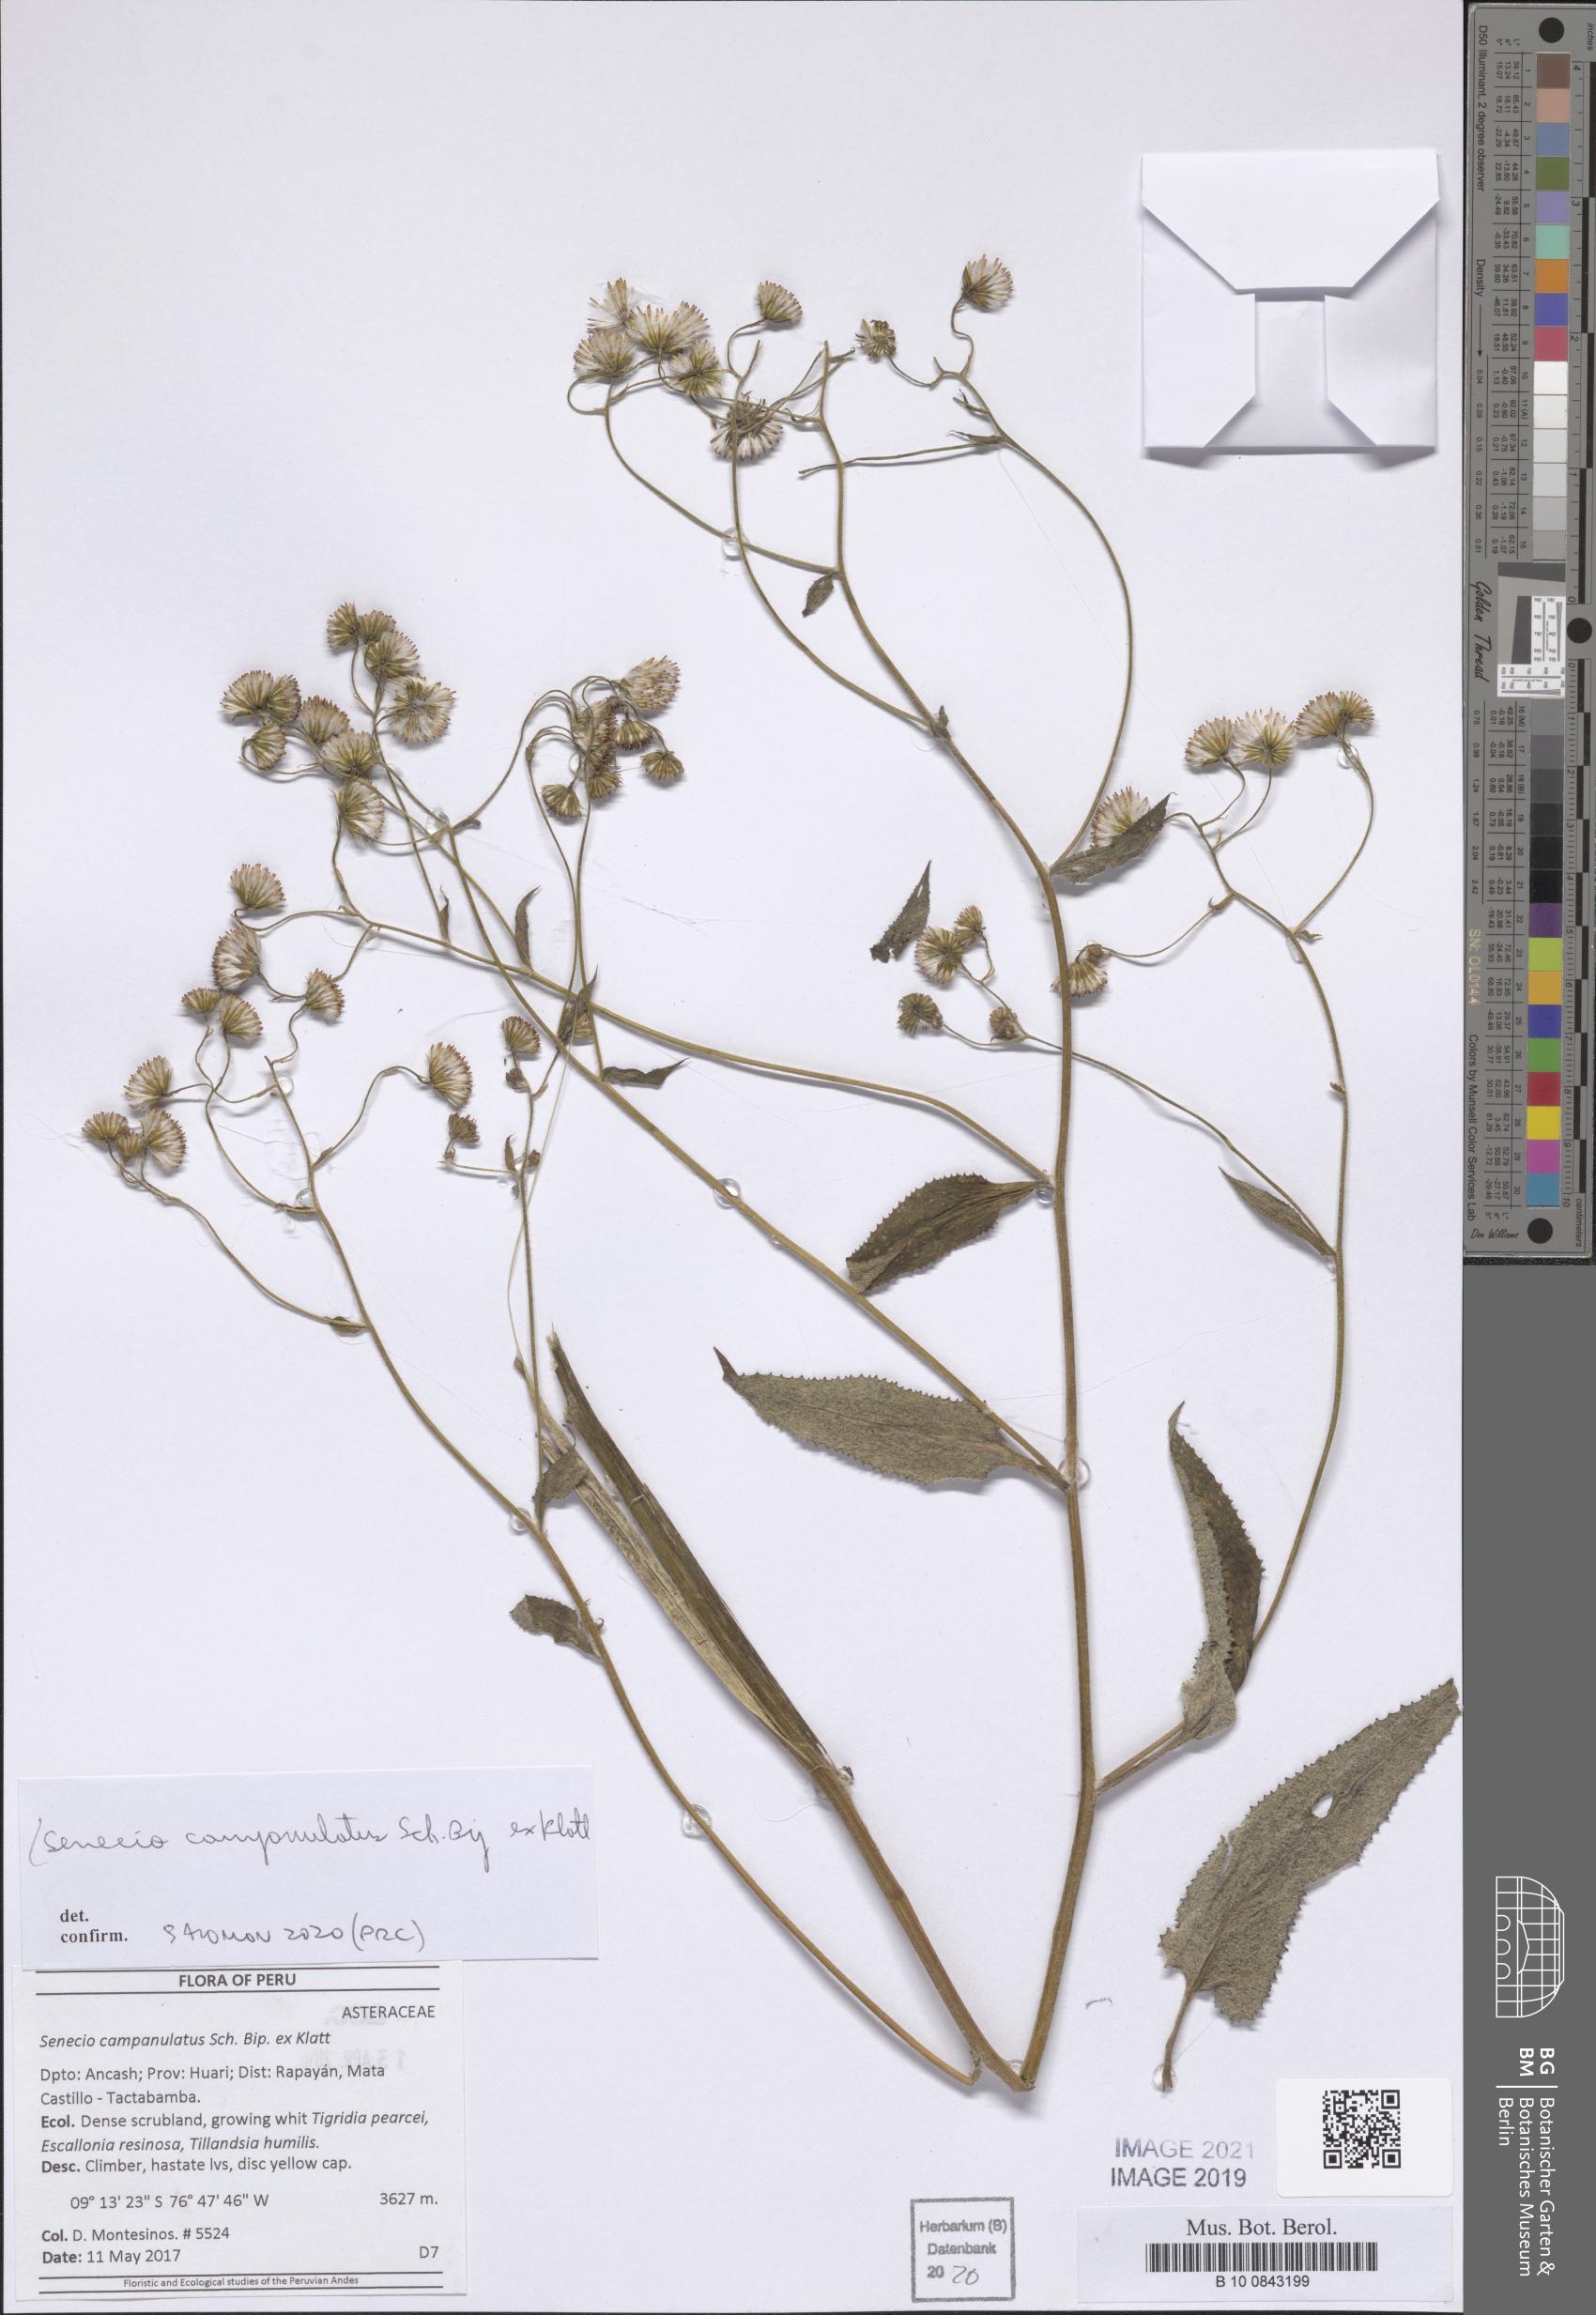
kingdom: Plantae
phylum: Tracheophyta
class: Magnoliopsida
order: Asterales
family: Asteraceae
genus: Aetheolaena
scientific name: Aetheolaena betonicifolia
